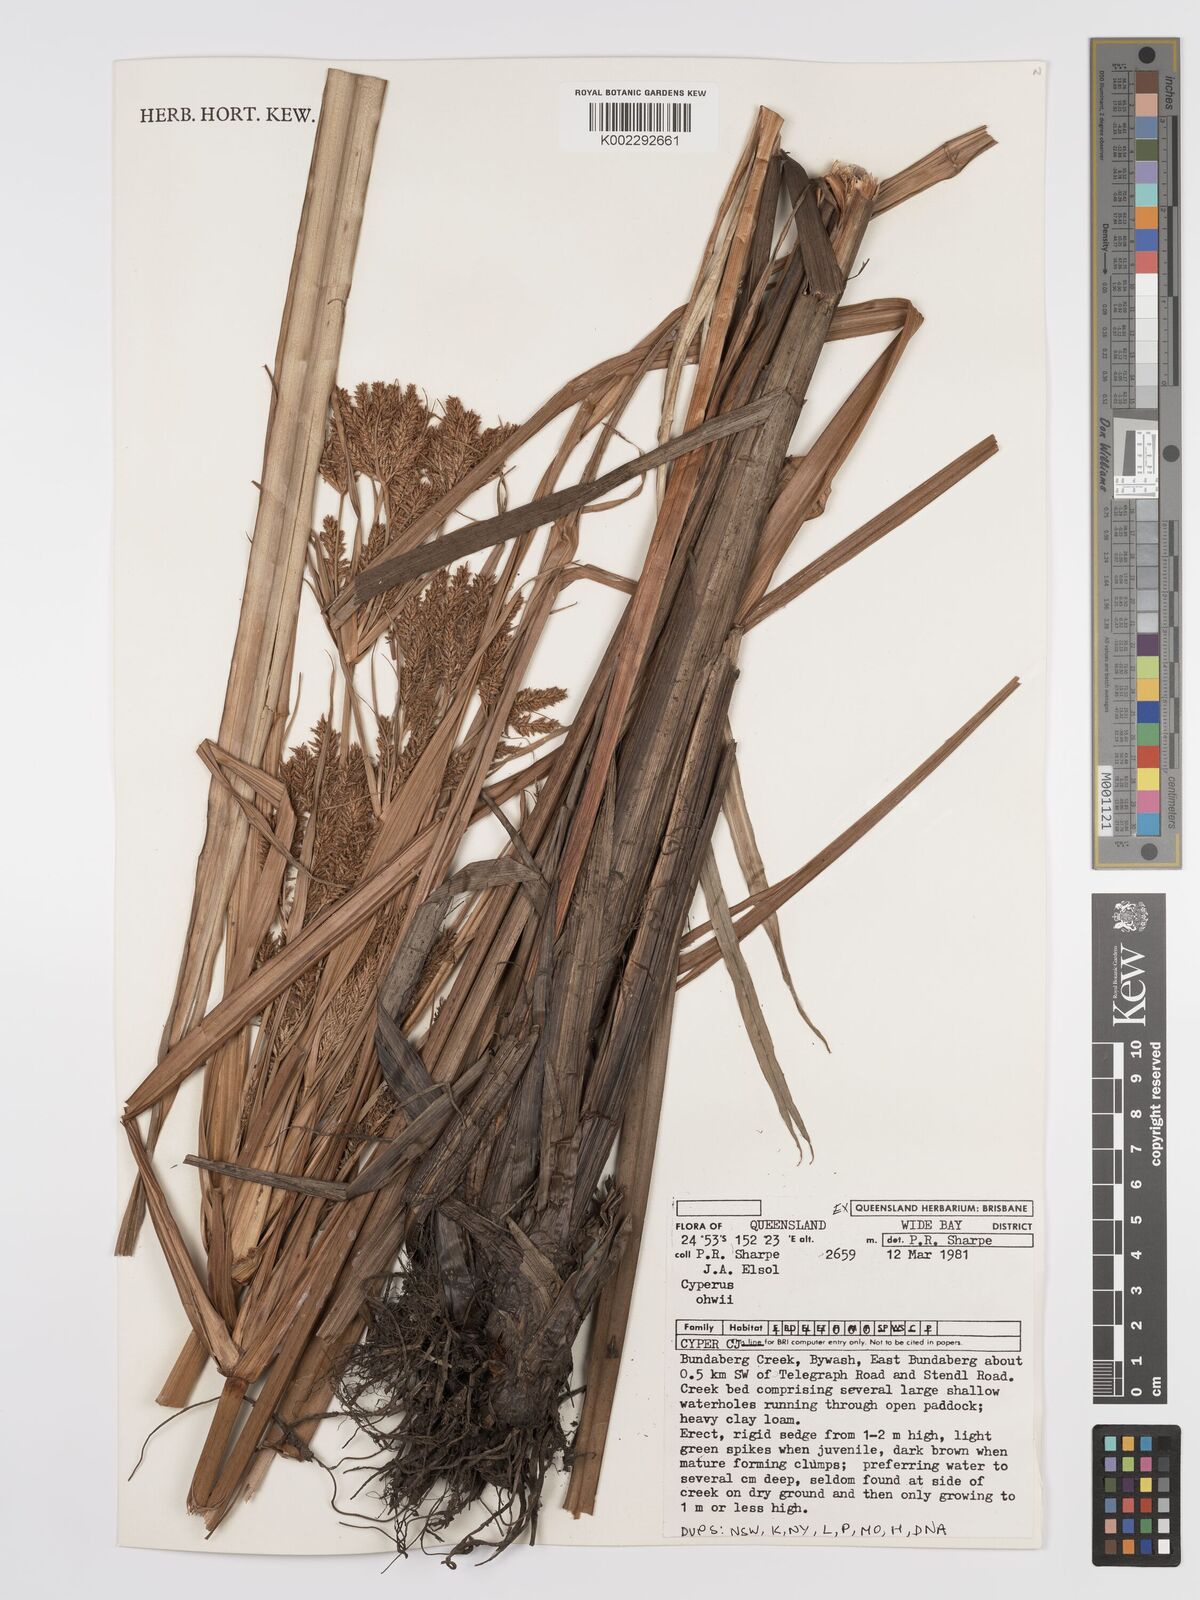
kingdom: Plantae
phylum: Tracheophyta
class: Liliopsida
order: Poales
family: Cyperaceae
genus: Cyperus
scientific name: Cyperus ohwii
